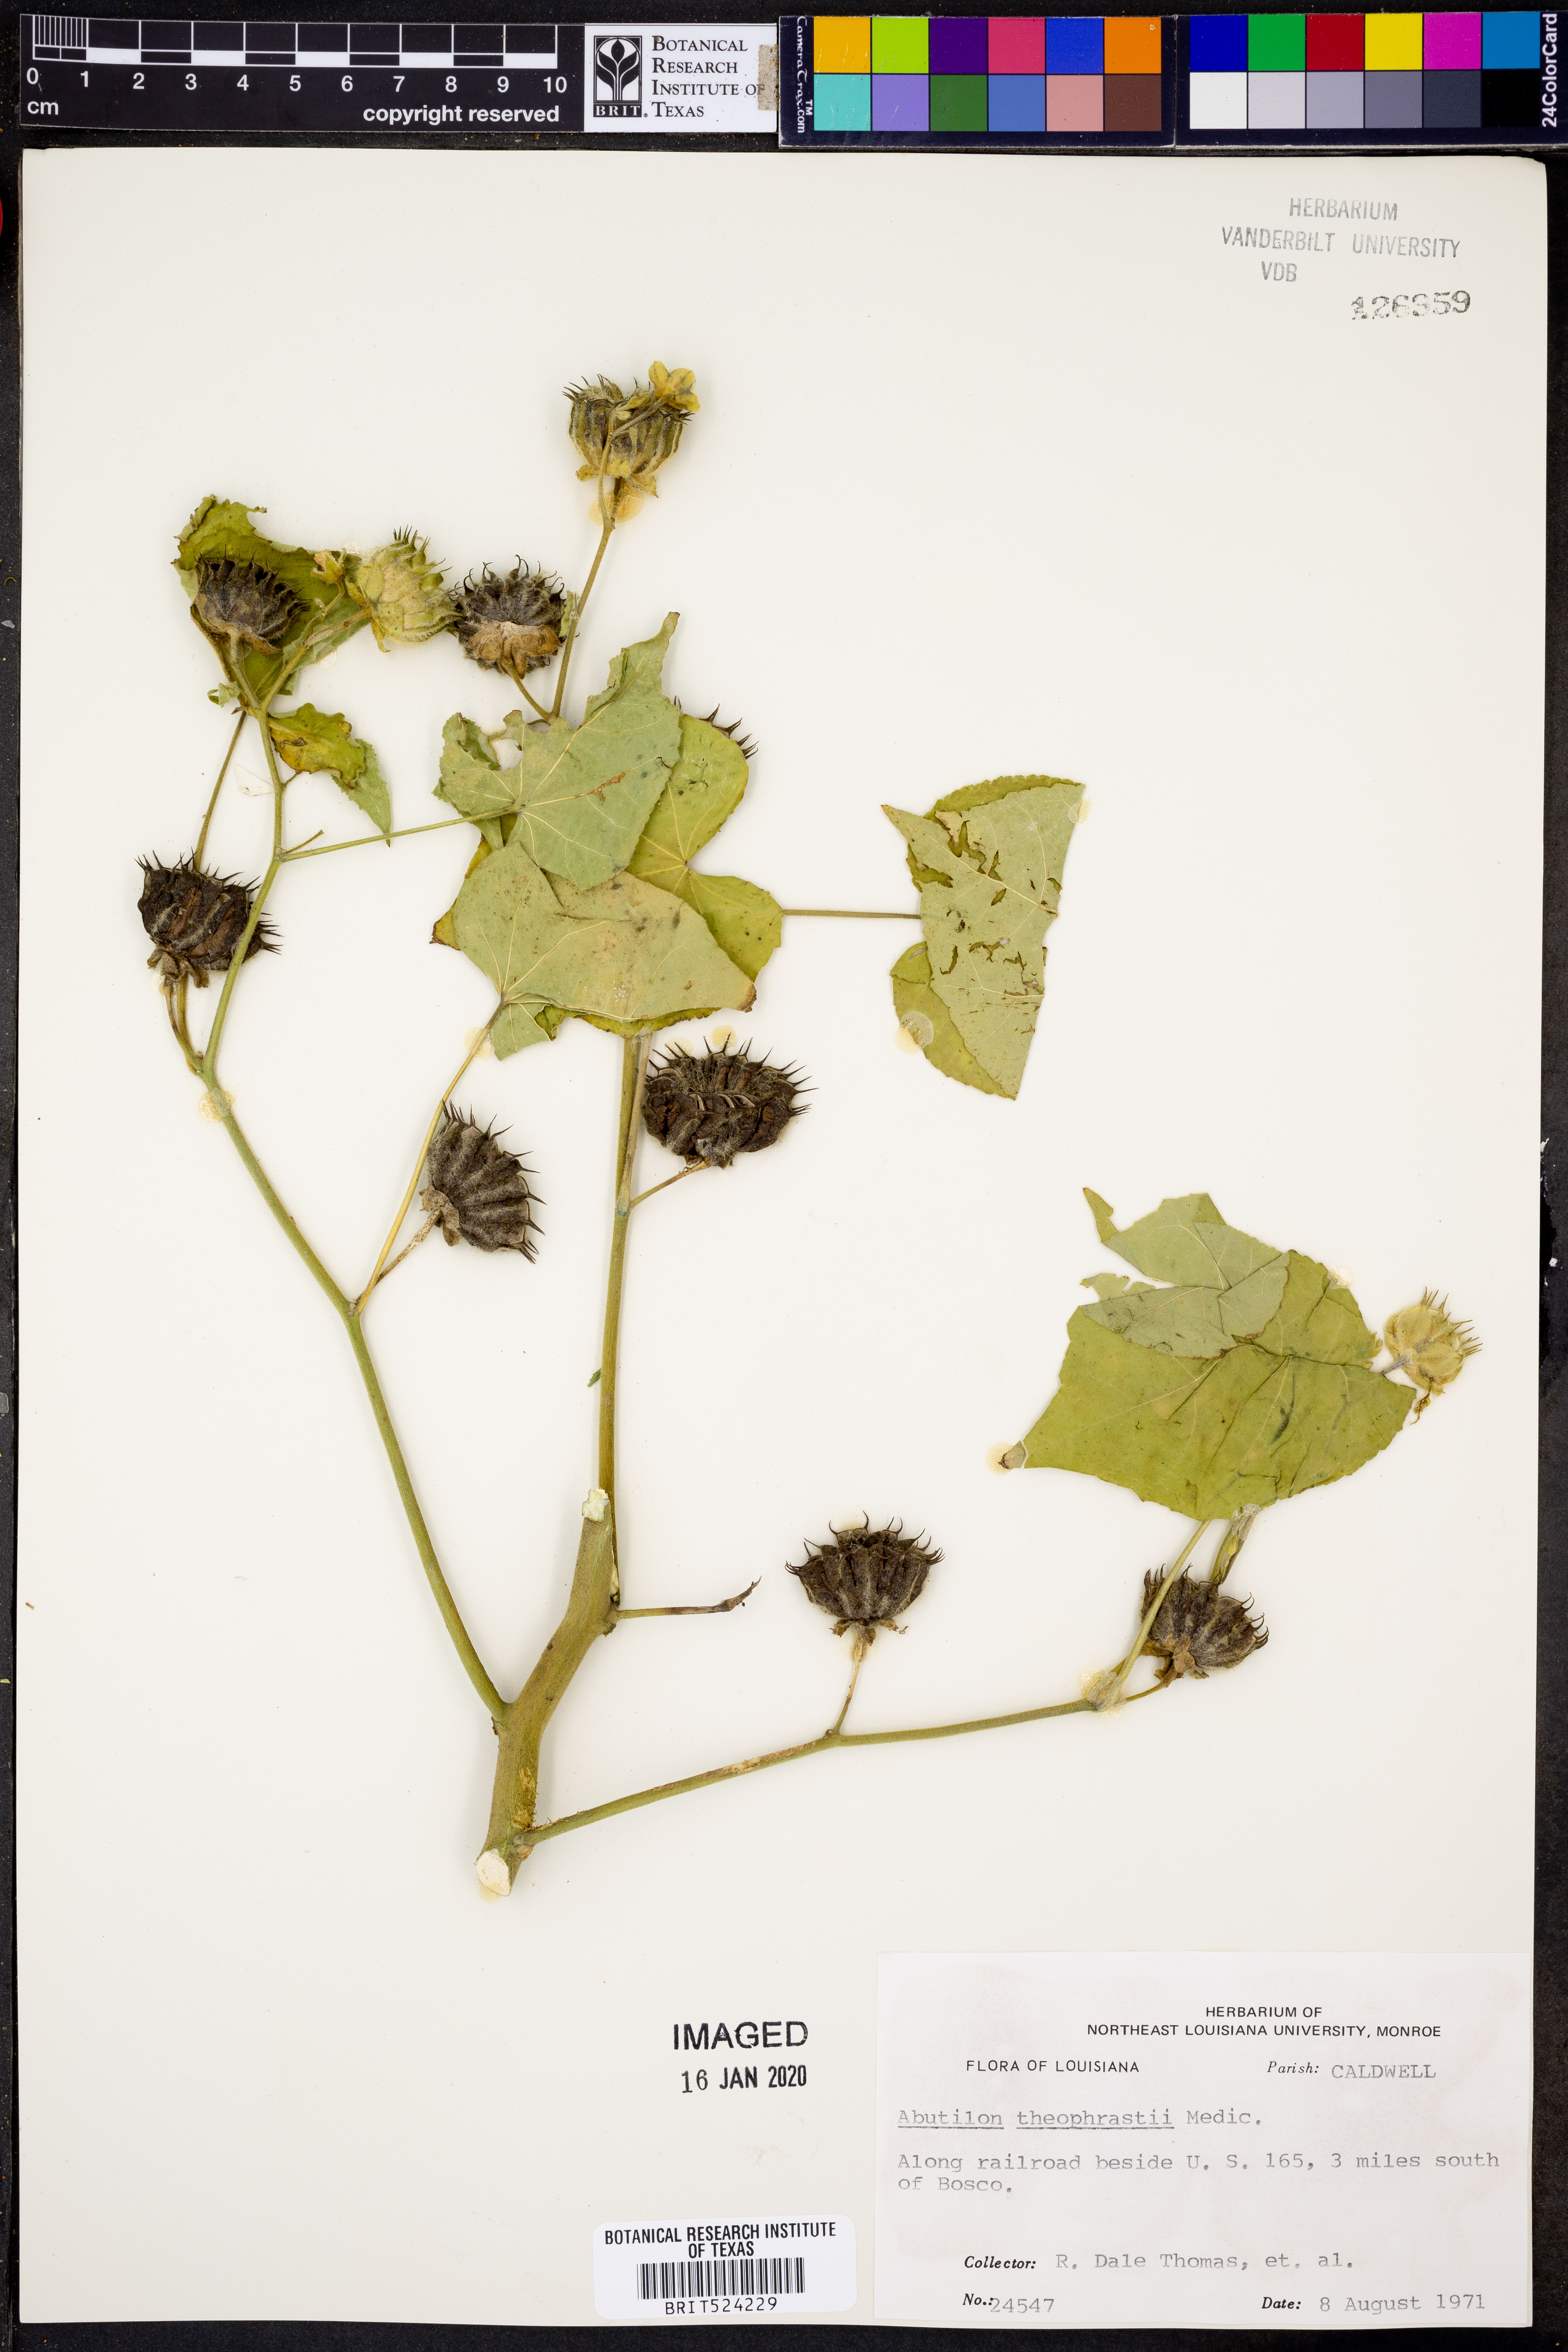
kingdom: Plantae
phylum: Tracheophyta
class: Magnoliopsida
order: Malvales
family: Malvaceae
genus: Abutilon
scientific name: Abutilon theophrasti
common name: Velvetleaf
